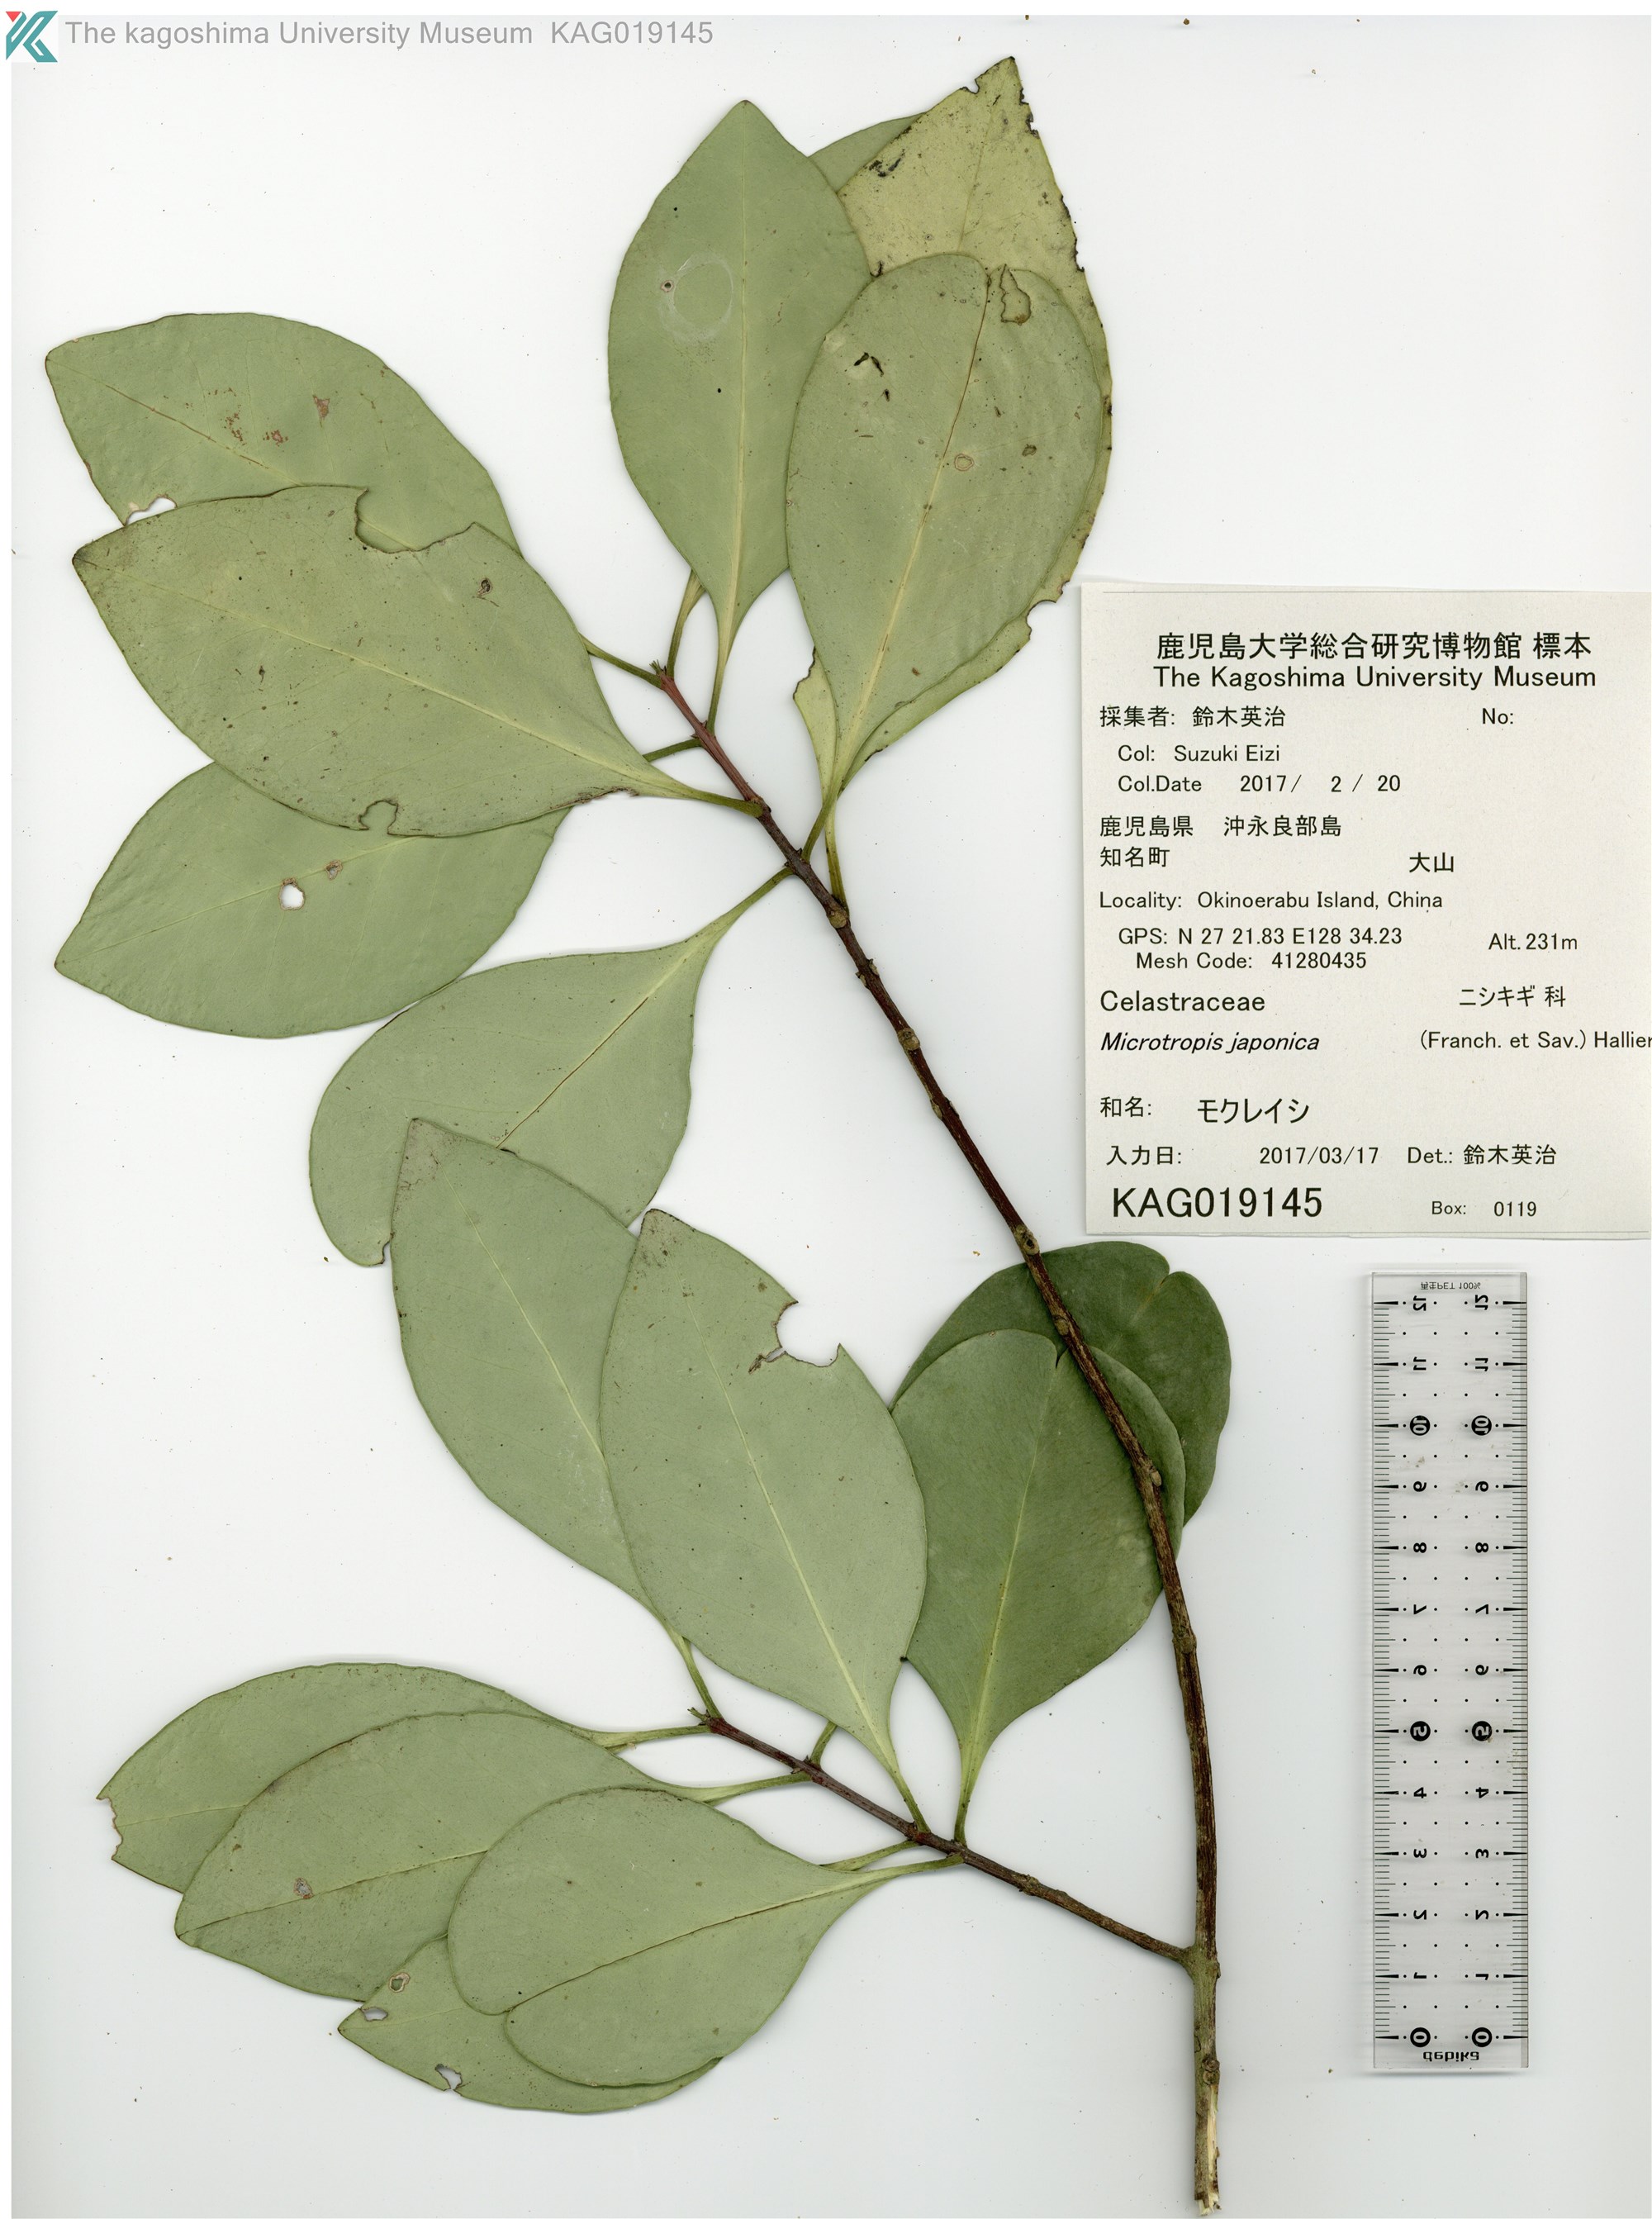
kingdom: Plantae
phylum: Tracheophyta
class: Magnoliopsida
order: Celastrales
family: Celastraceae
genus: Microtropis
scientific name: Microtropis japonica
